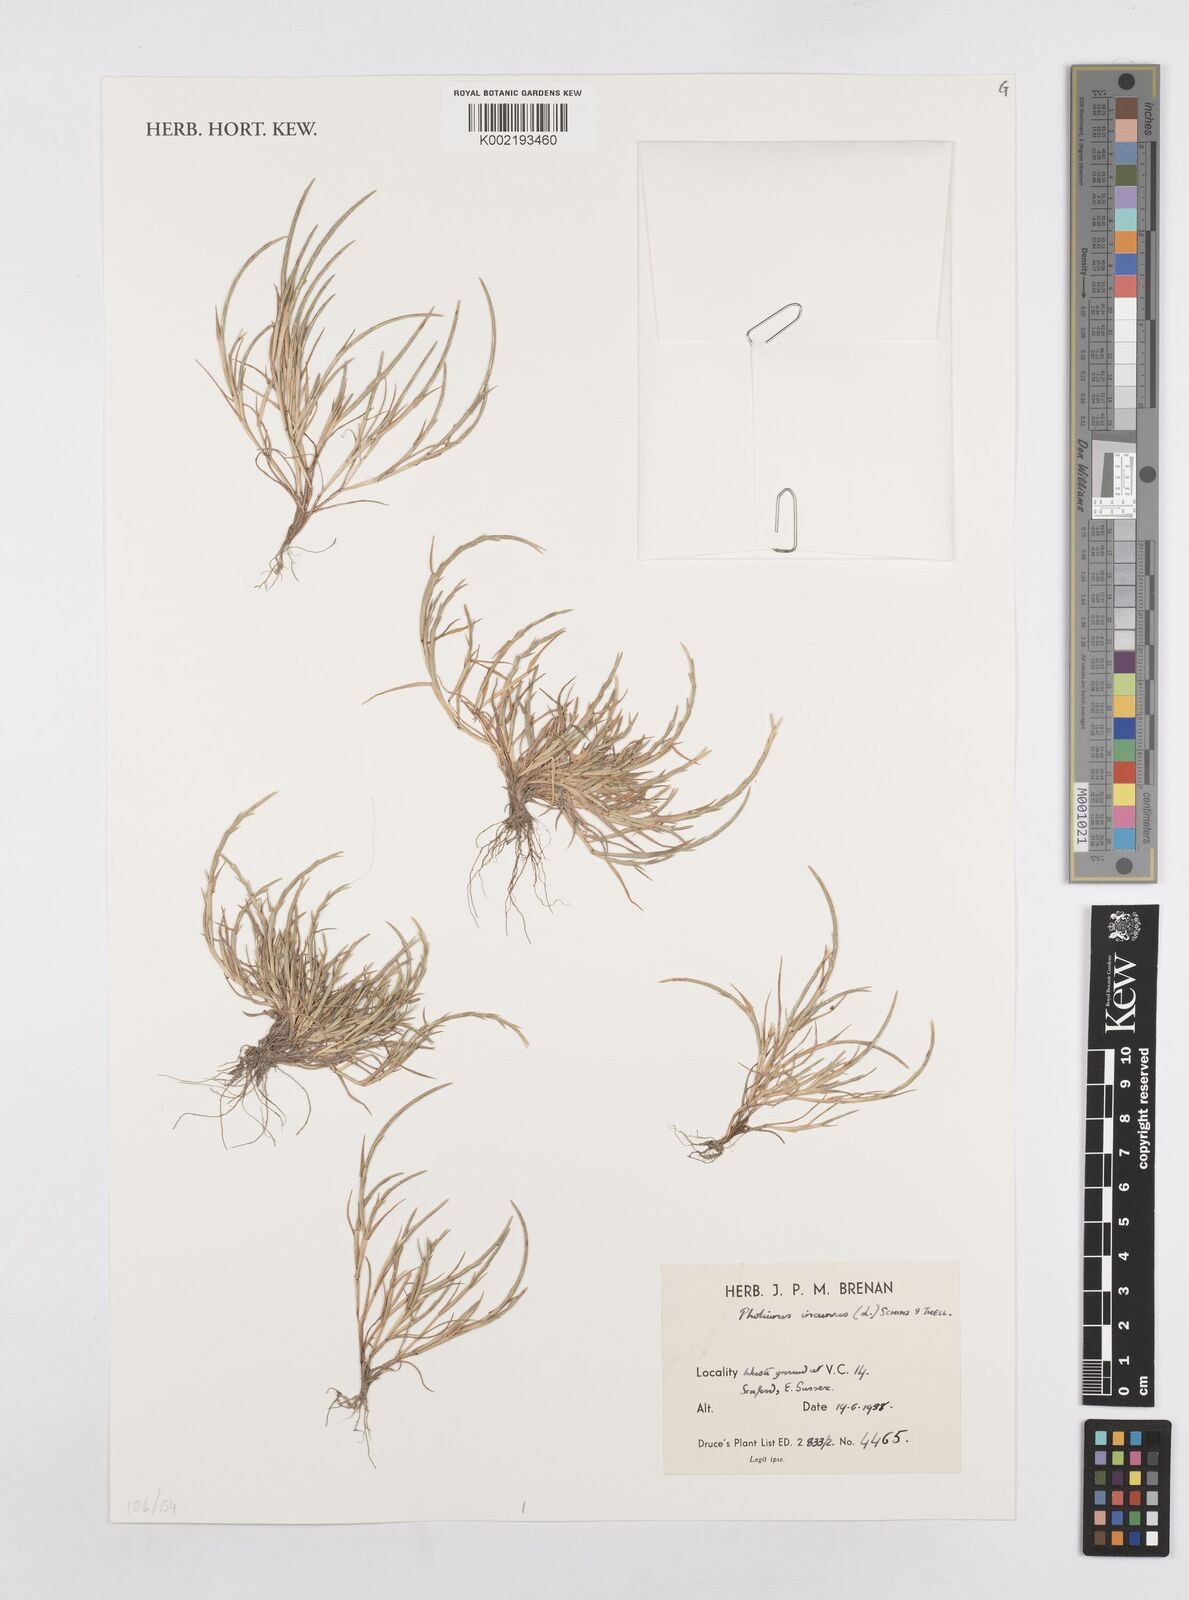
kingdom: Plantae
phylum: Tracheophyta
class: Liliopsida
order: Poales
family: Poaceae
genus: Parapholis
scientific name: Parapholis incurva
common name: Curved sicklegrass
